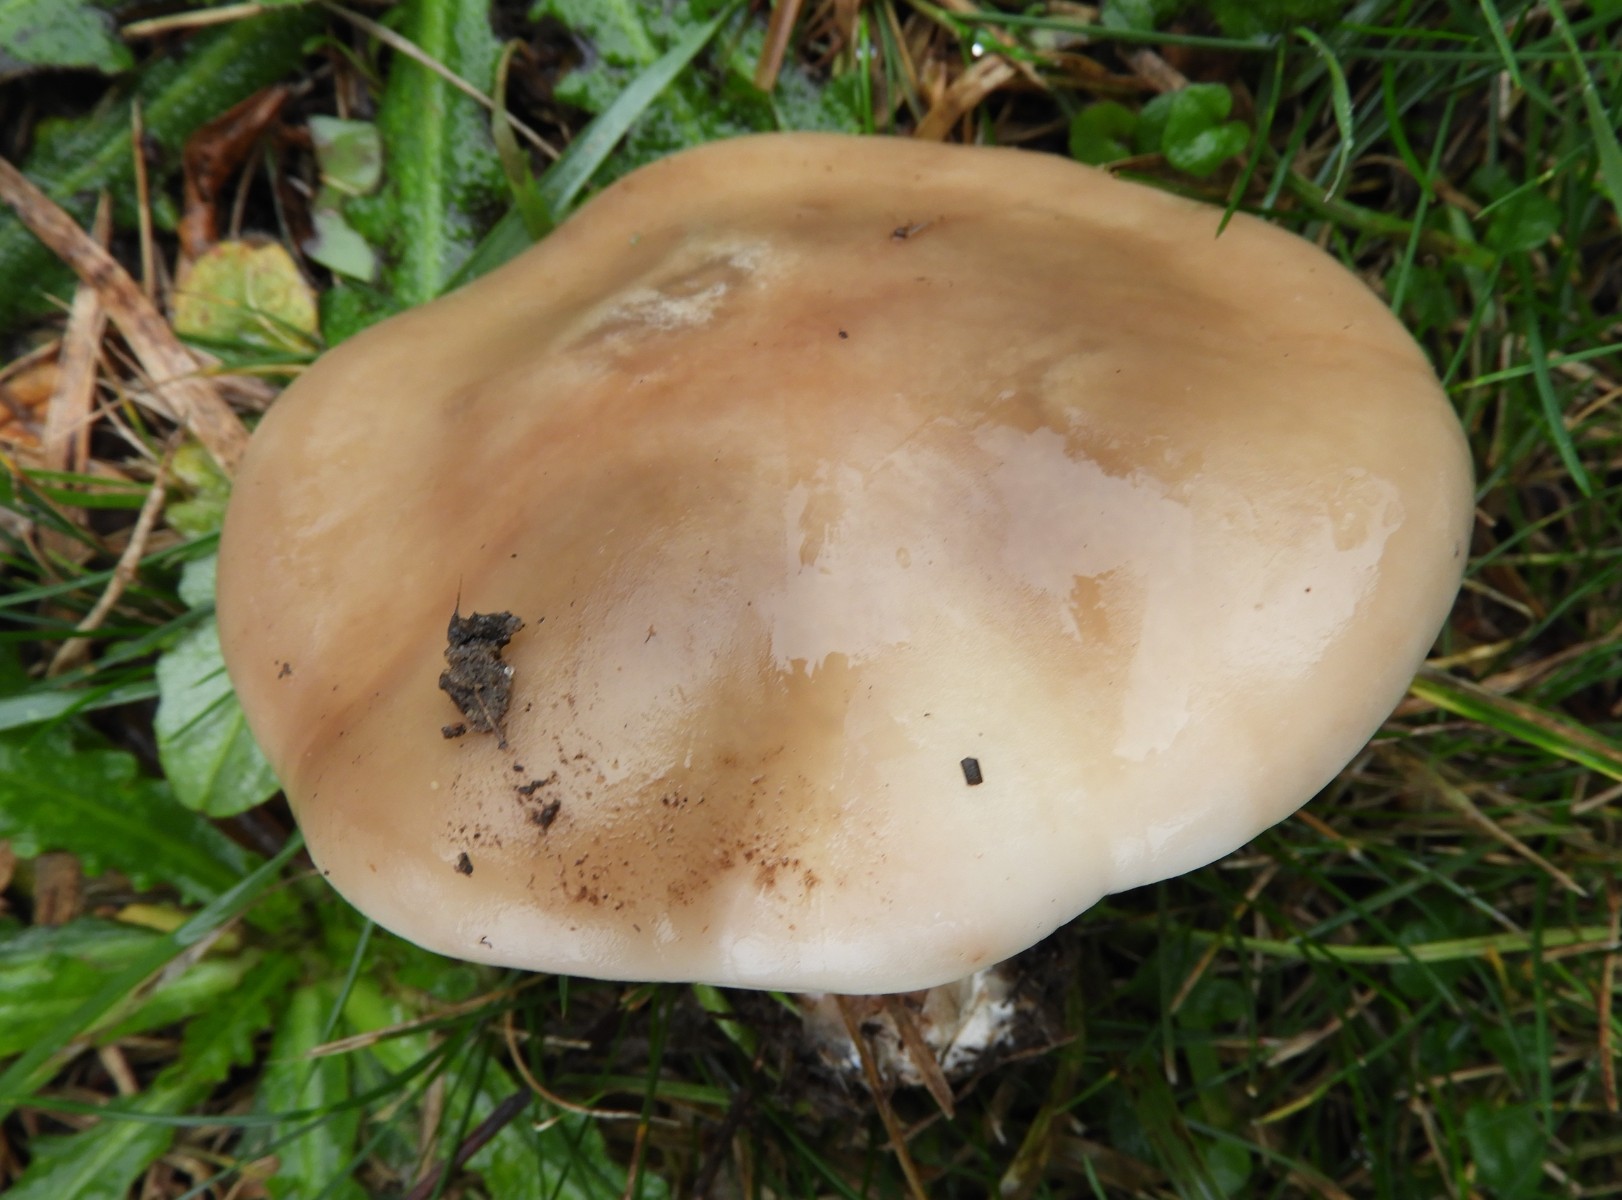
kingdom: Fungi
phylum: Basidiomycota
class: Agaricomycetes
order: Agaricales
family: Tricholomataceae
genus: Lepista
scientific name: Lepista personata
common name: bleg hekseringshat
